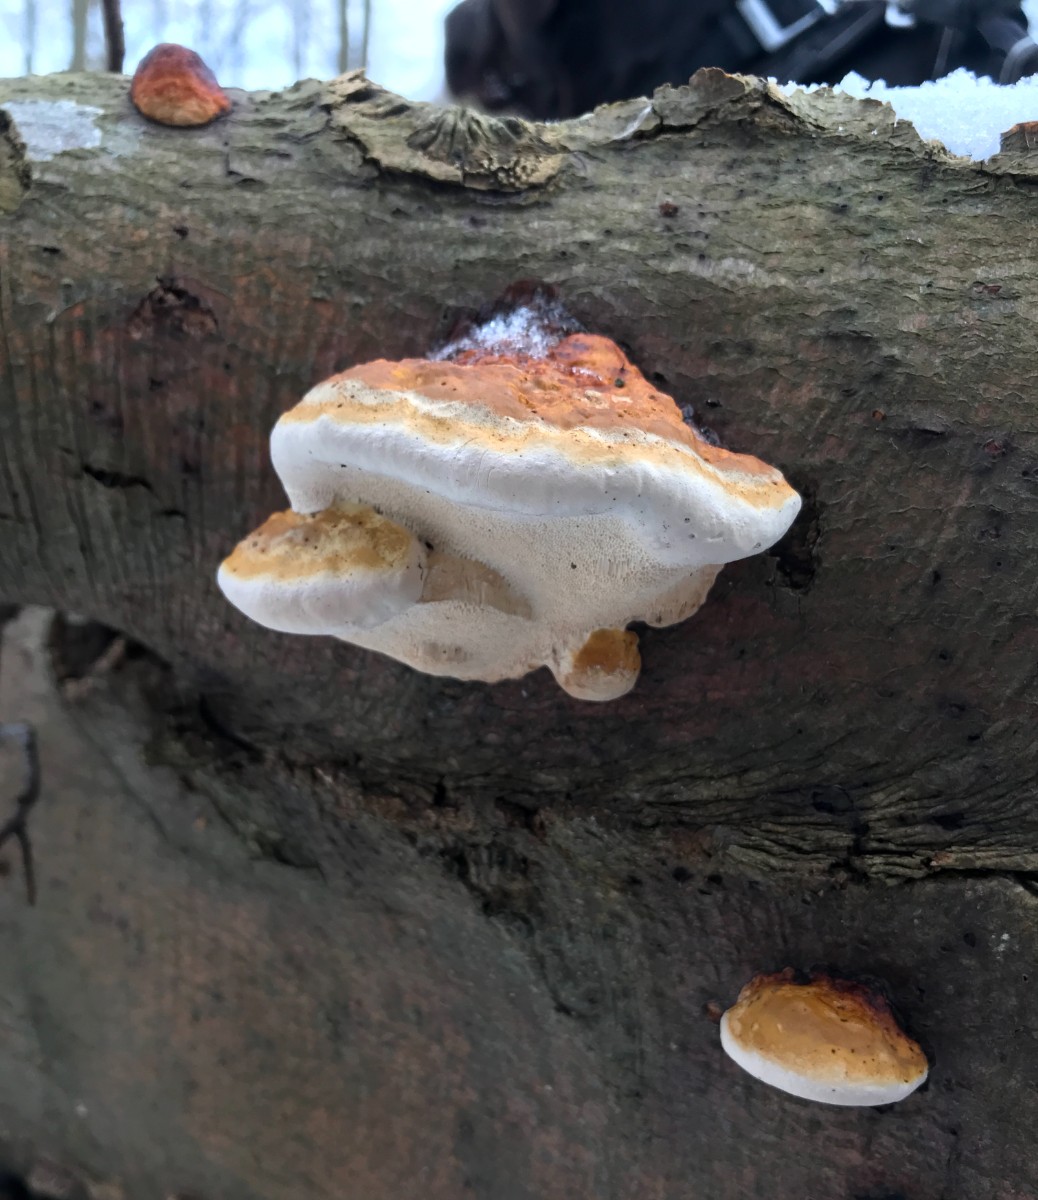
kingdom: Fungi
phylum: Basidiomycota
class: Agaricomycetes
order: Polyporales
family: Fomitopsidaceae
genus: Fomitopsis
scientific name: Fomitopsis pinicola
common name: randbæltet hovporesvamp
